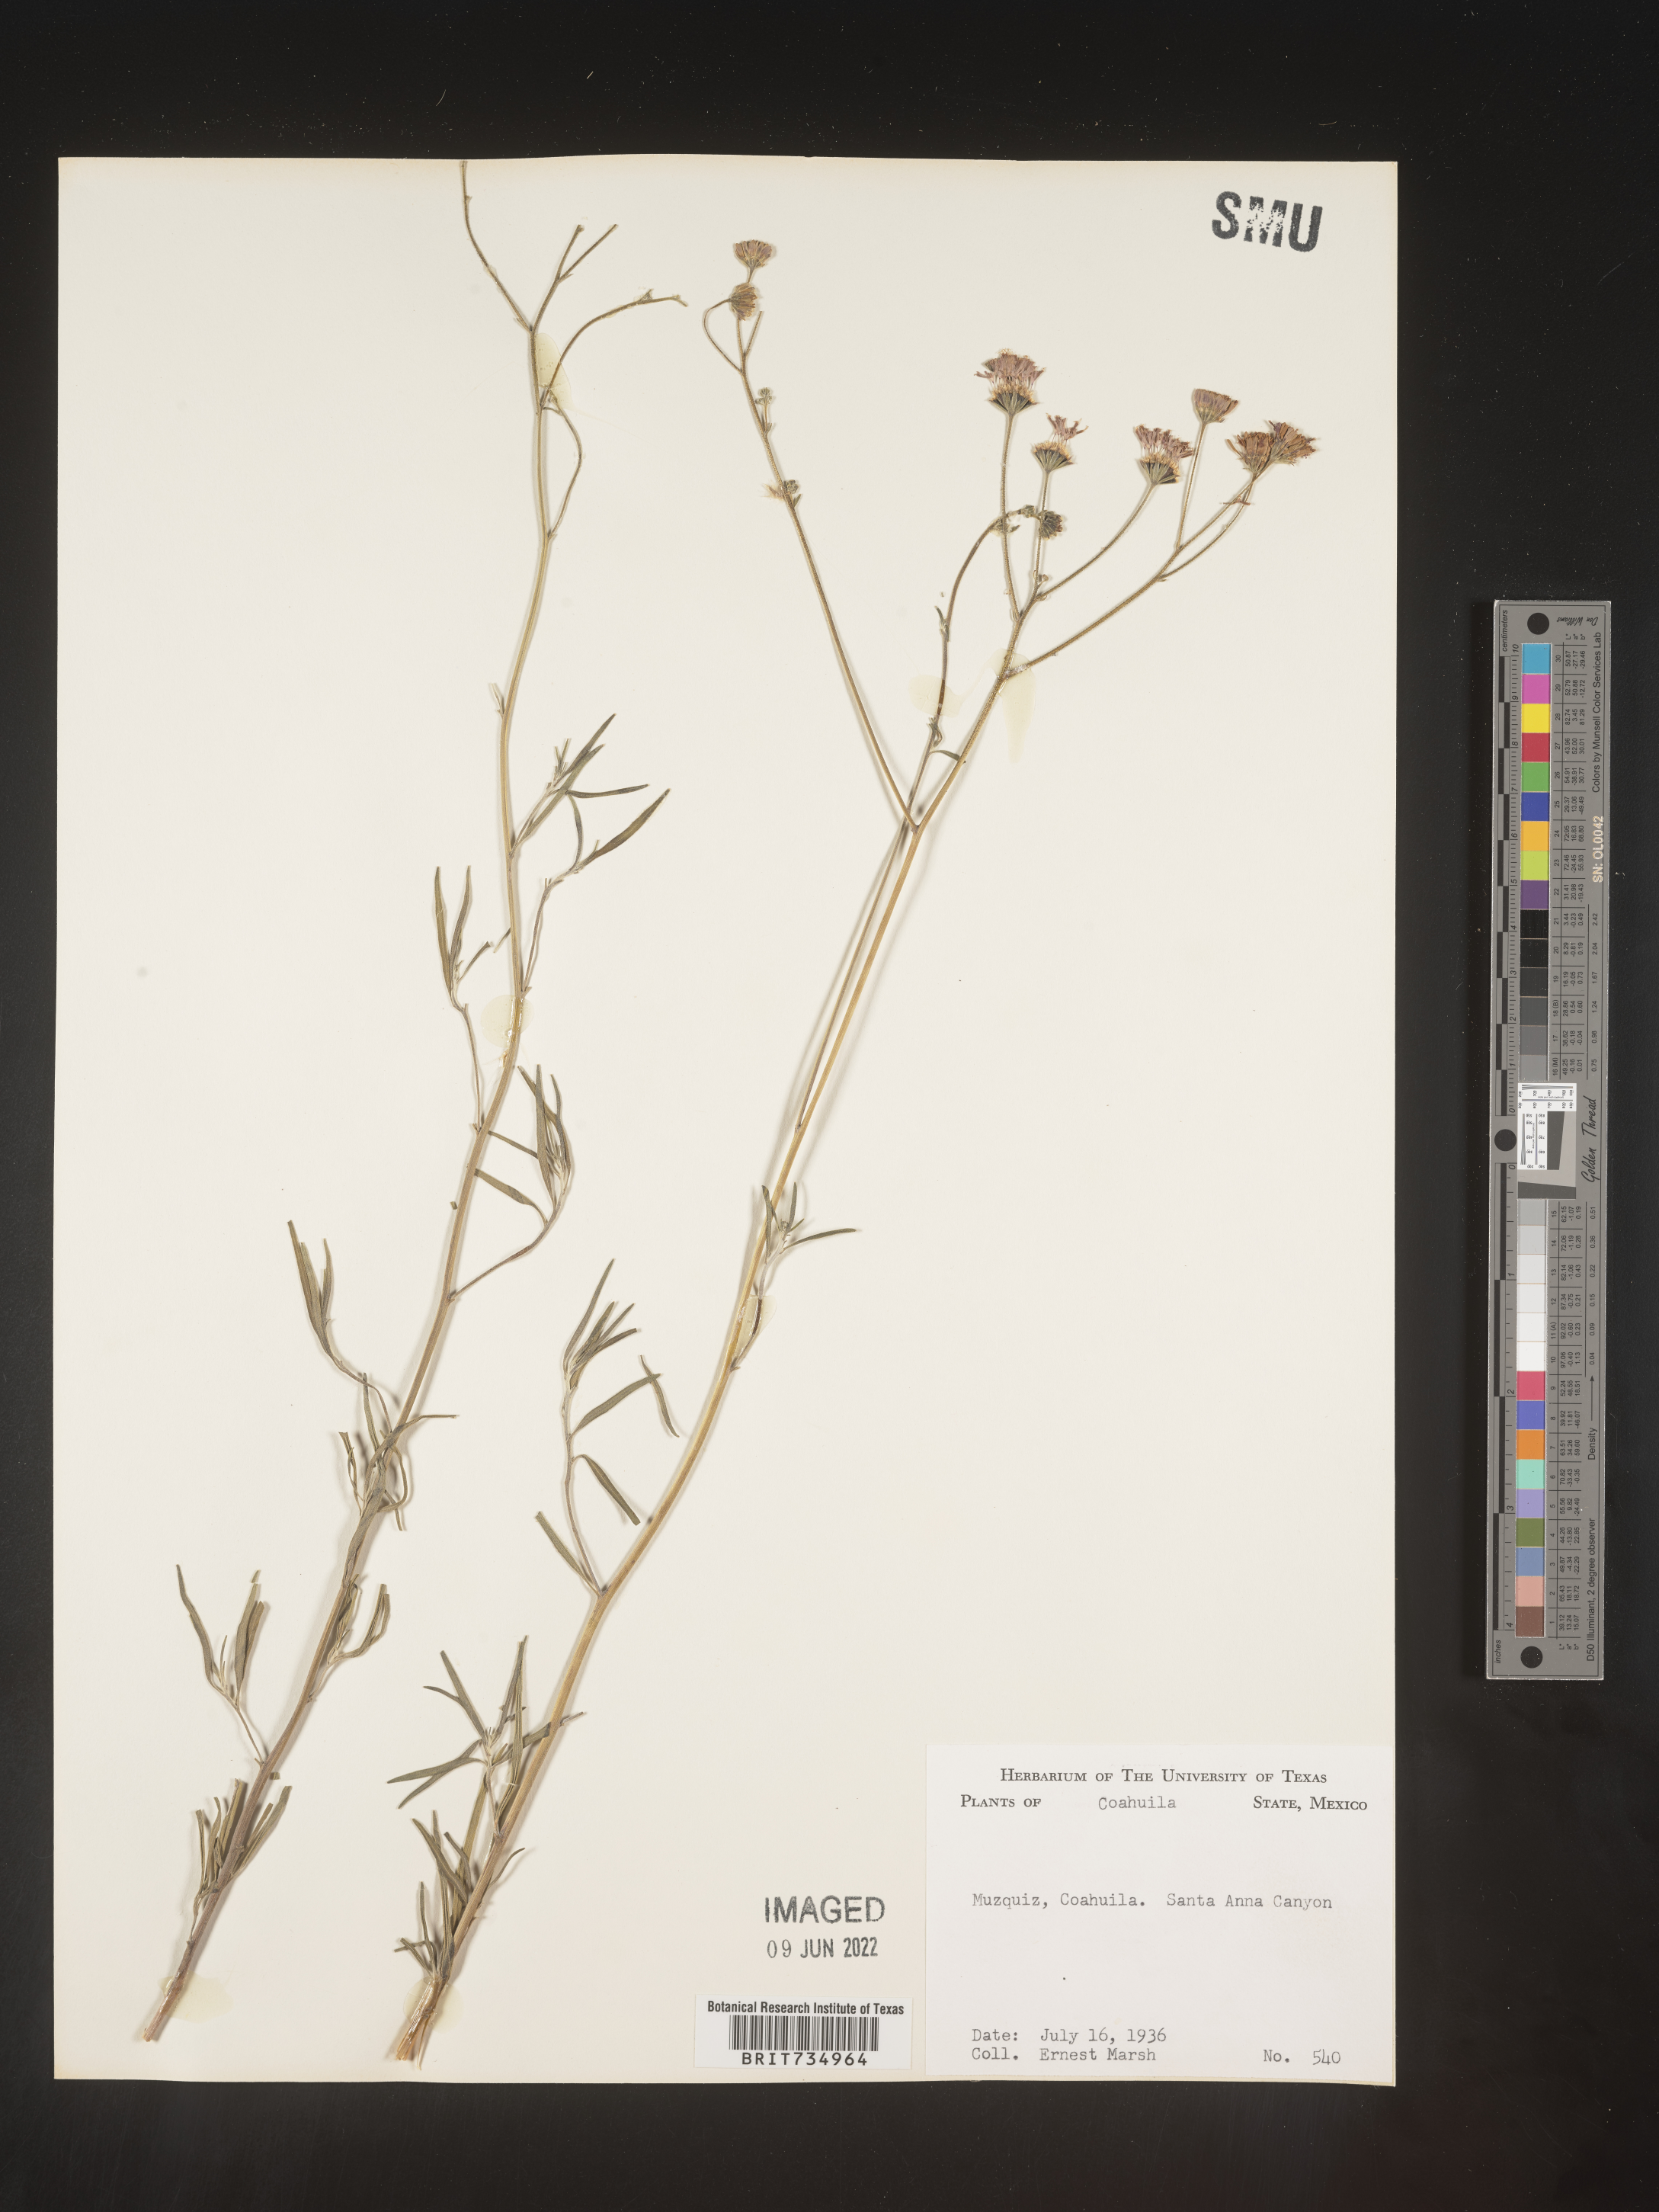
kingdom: Plantae
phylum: Tracheophyta
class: Magnoliopsida
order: Asterales
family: Asteraceae
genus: Palafoxia
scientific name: Palafoxia
